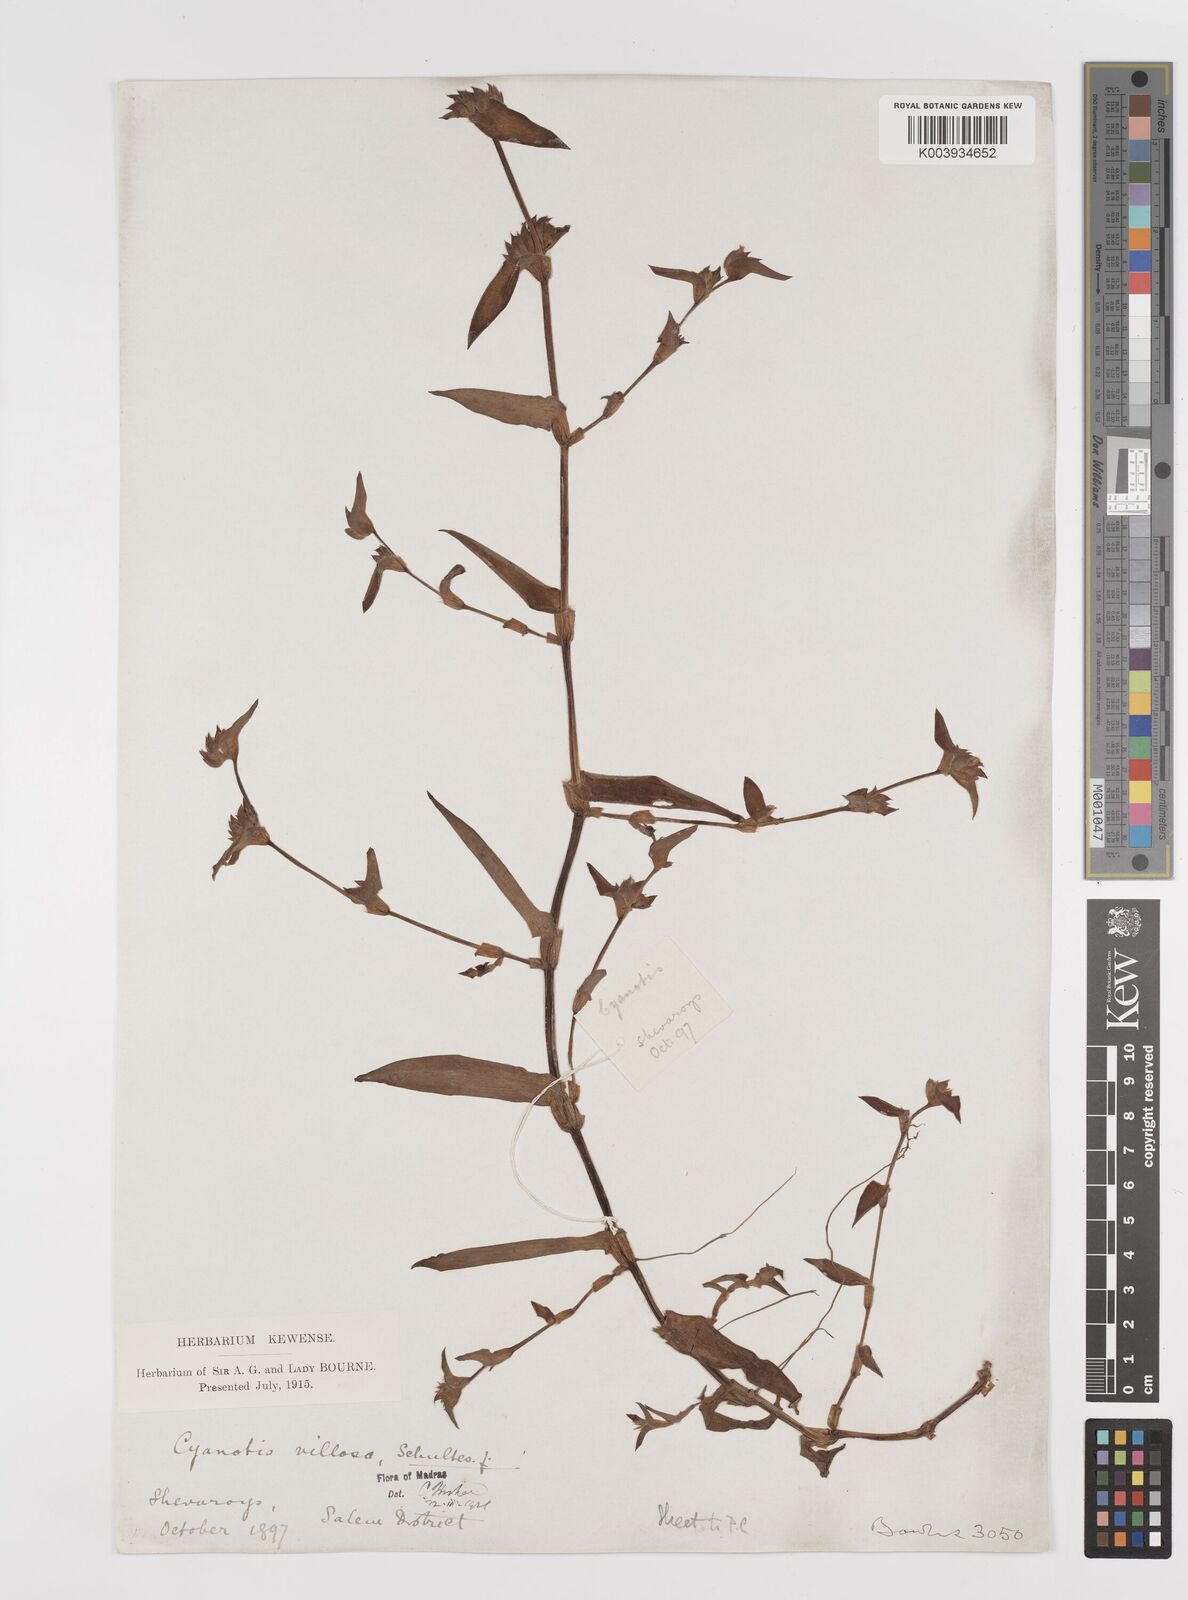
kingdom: Plantae
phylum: Tracheophyta
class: Liliopsida
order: Commelinales
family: Commelinaceae
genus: Cyanotis
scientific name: Cyanotis villosa
